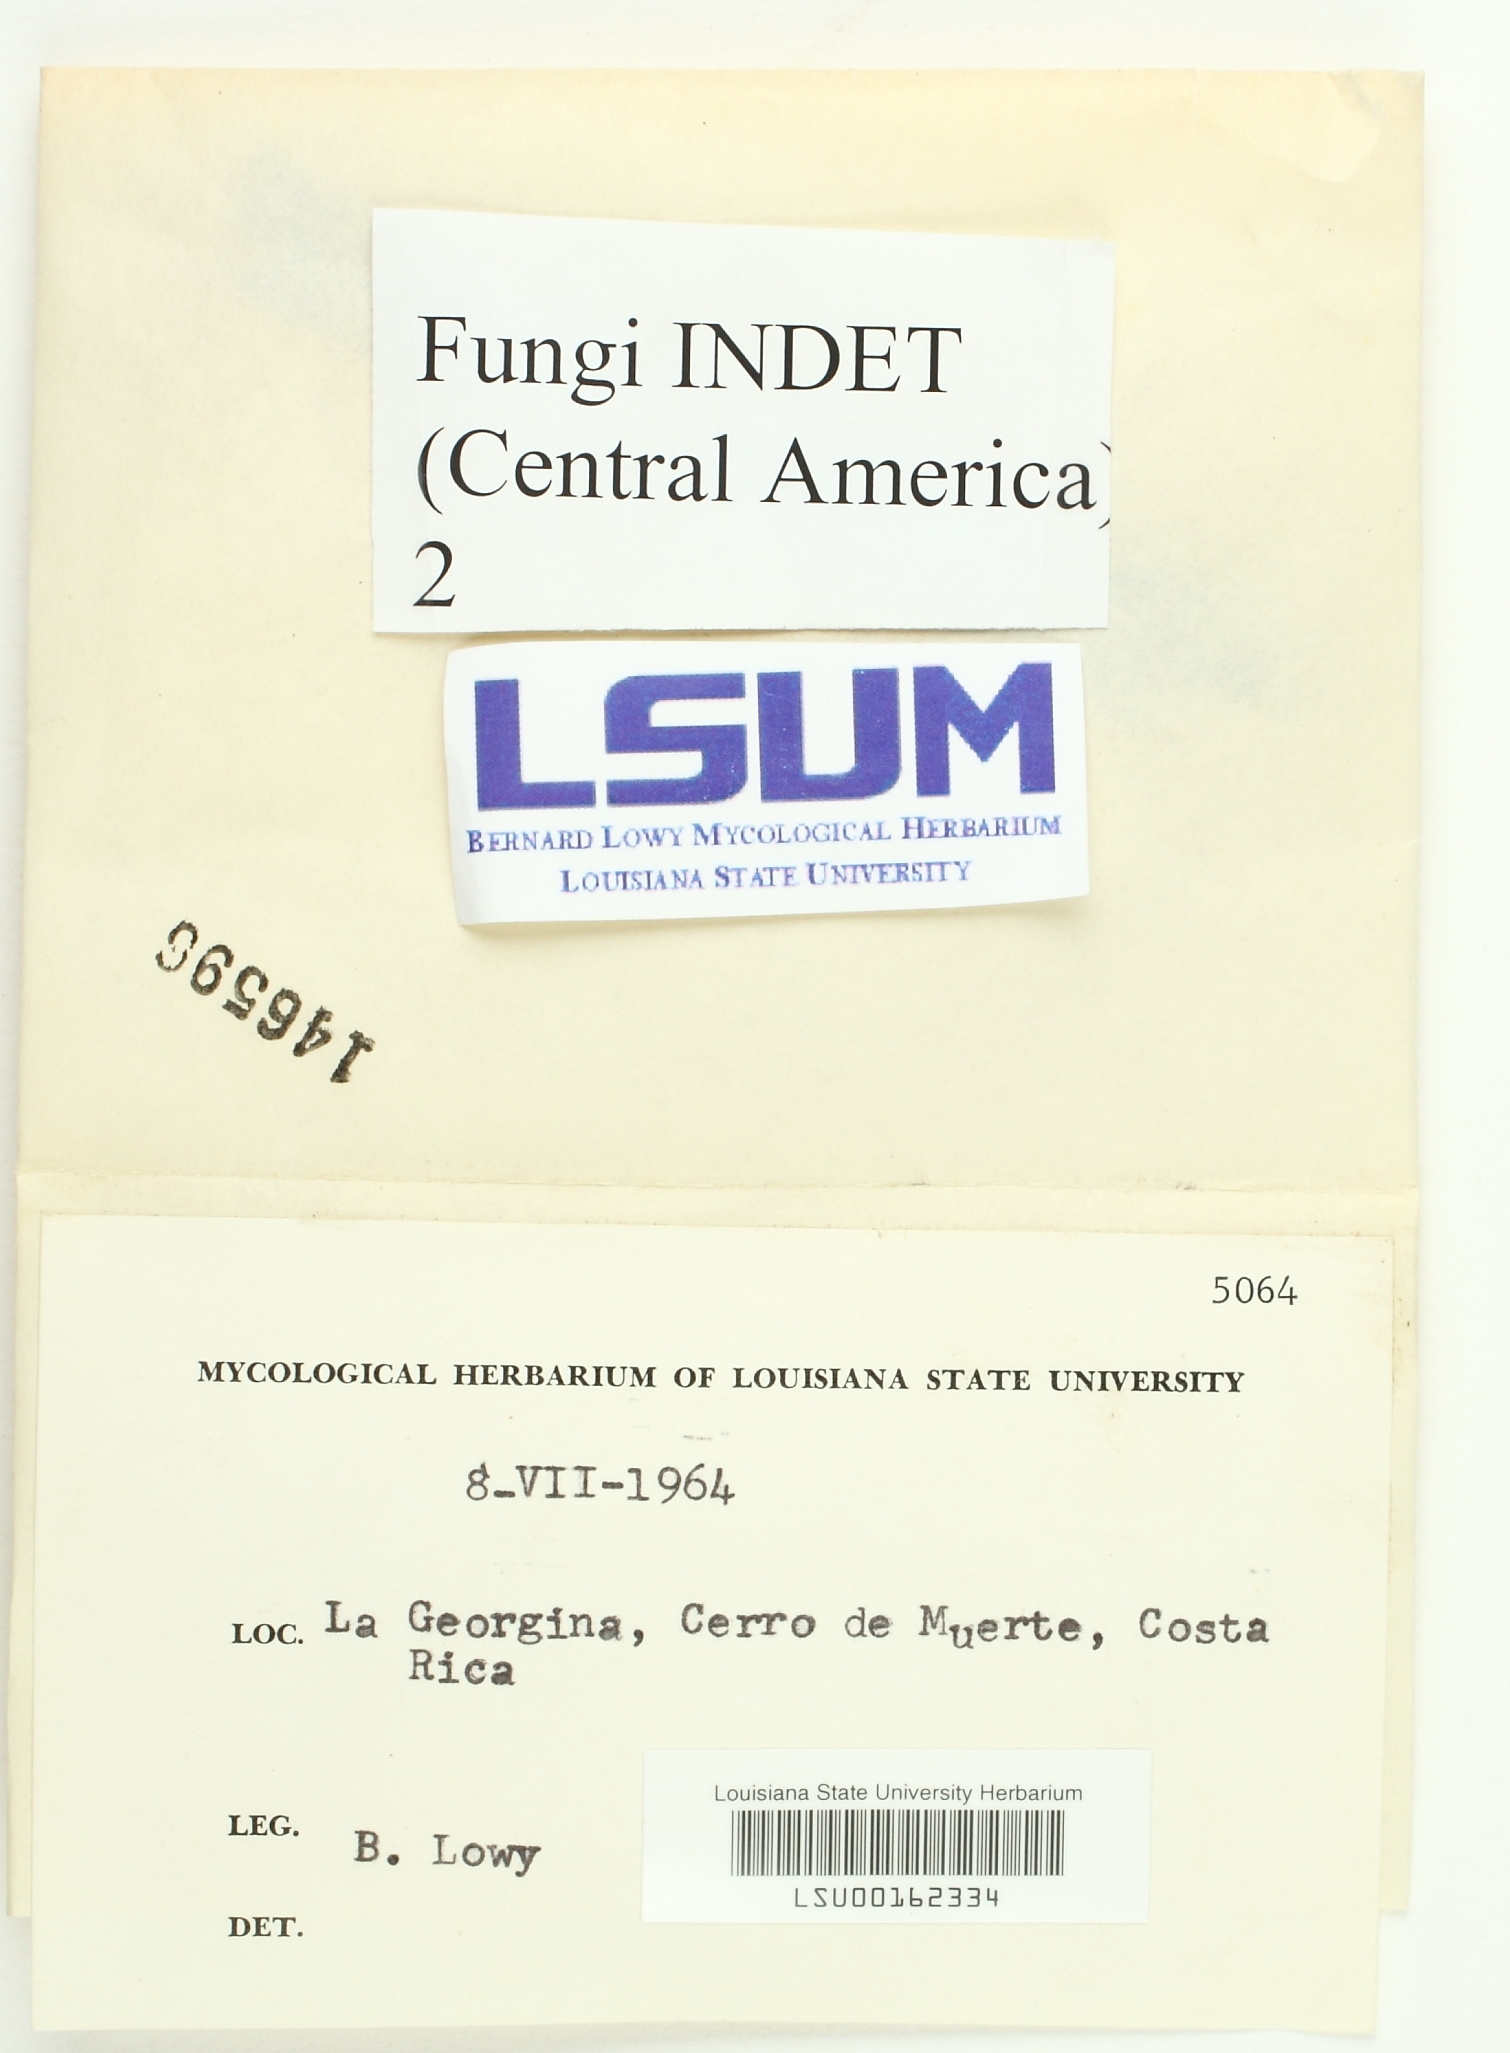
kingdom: Fungi
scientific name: Fungi
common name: Fungi
